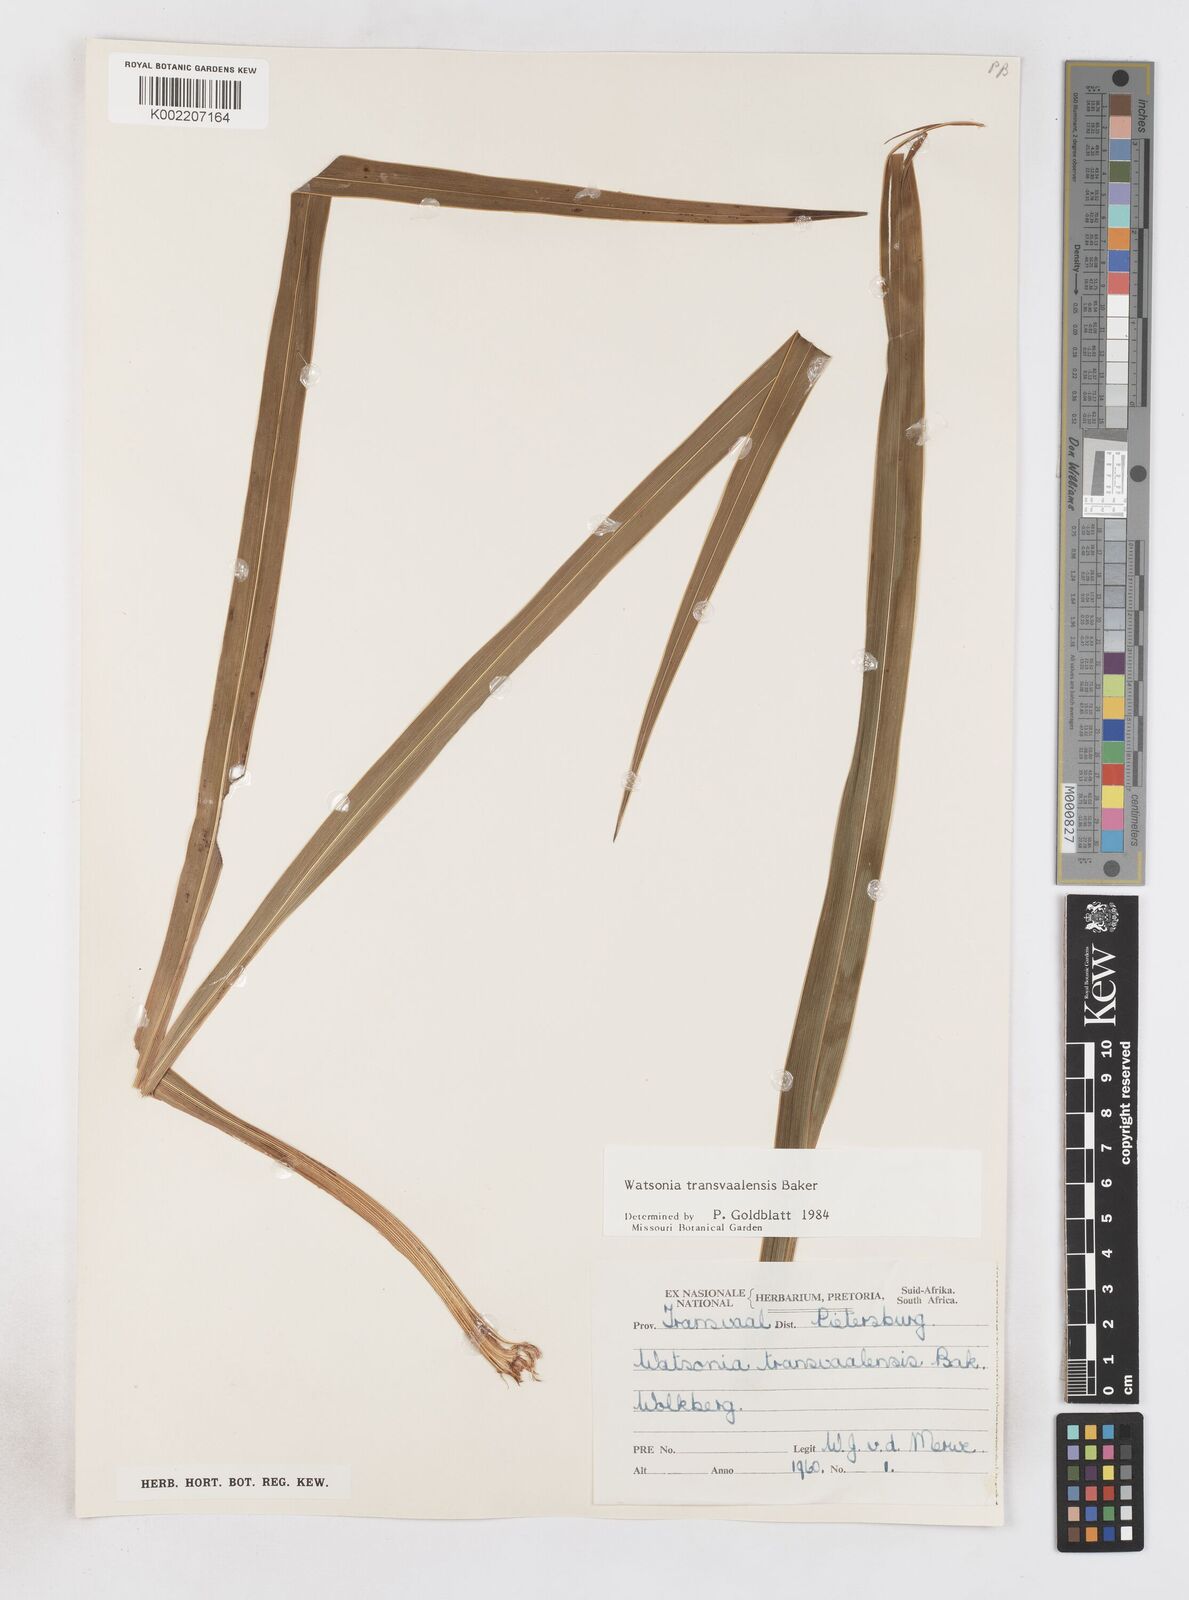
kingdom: Plantae
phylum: Tracheophyta
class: Liliopsida
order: Asparagales
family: Iridaceae
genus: Watsonia
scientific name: Watsonia transvaalensis
